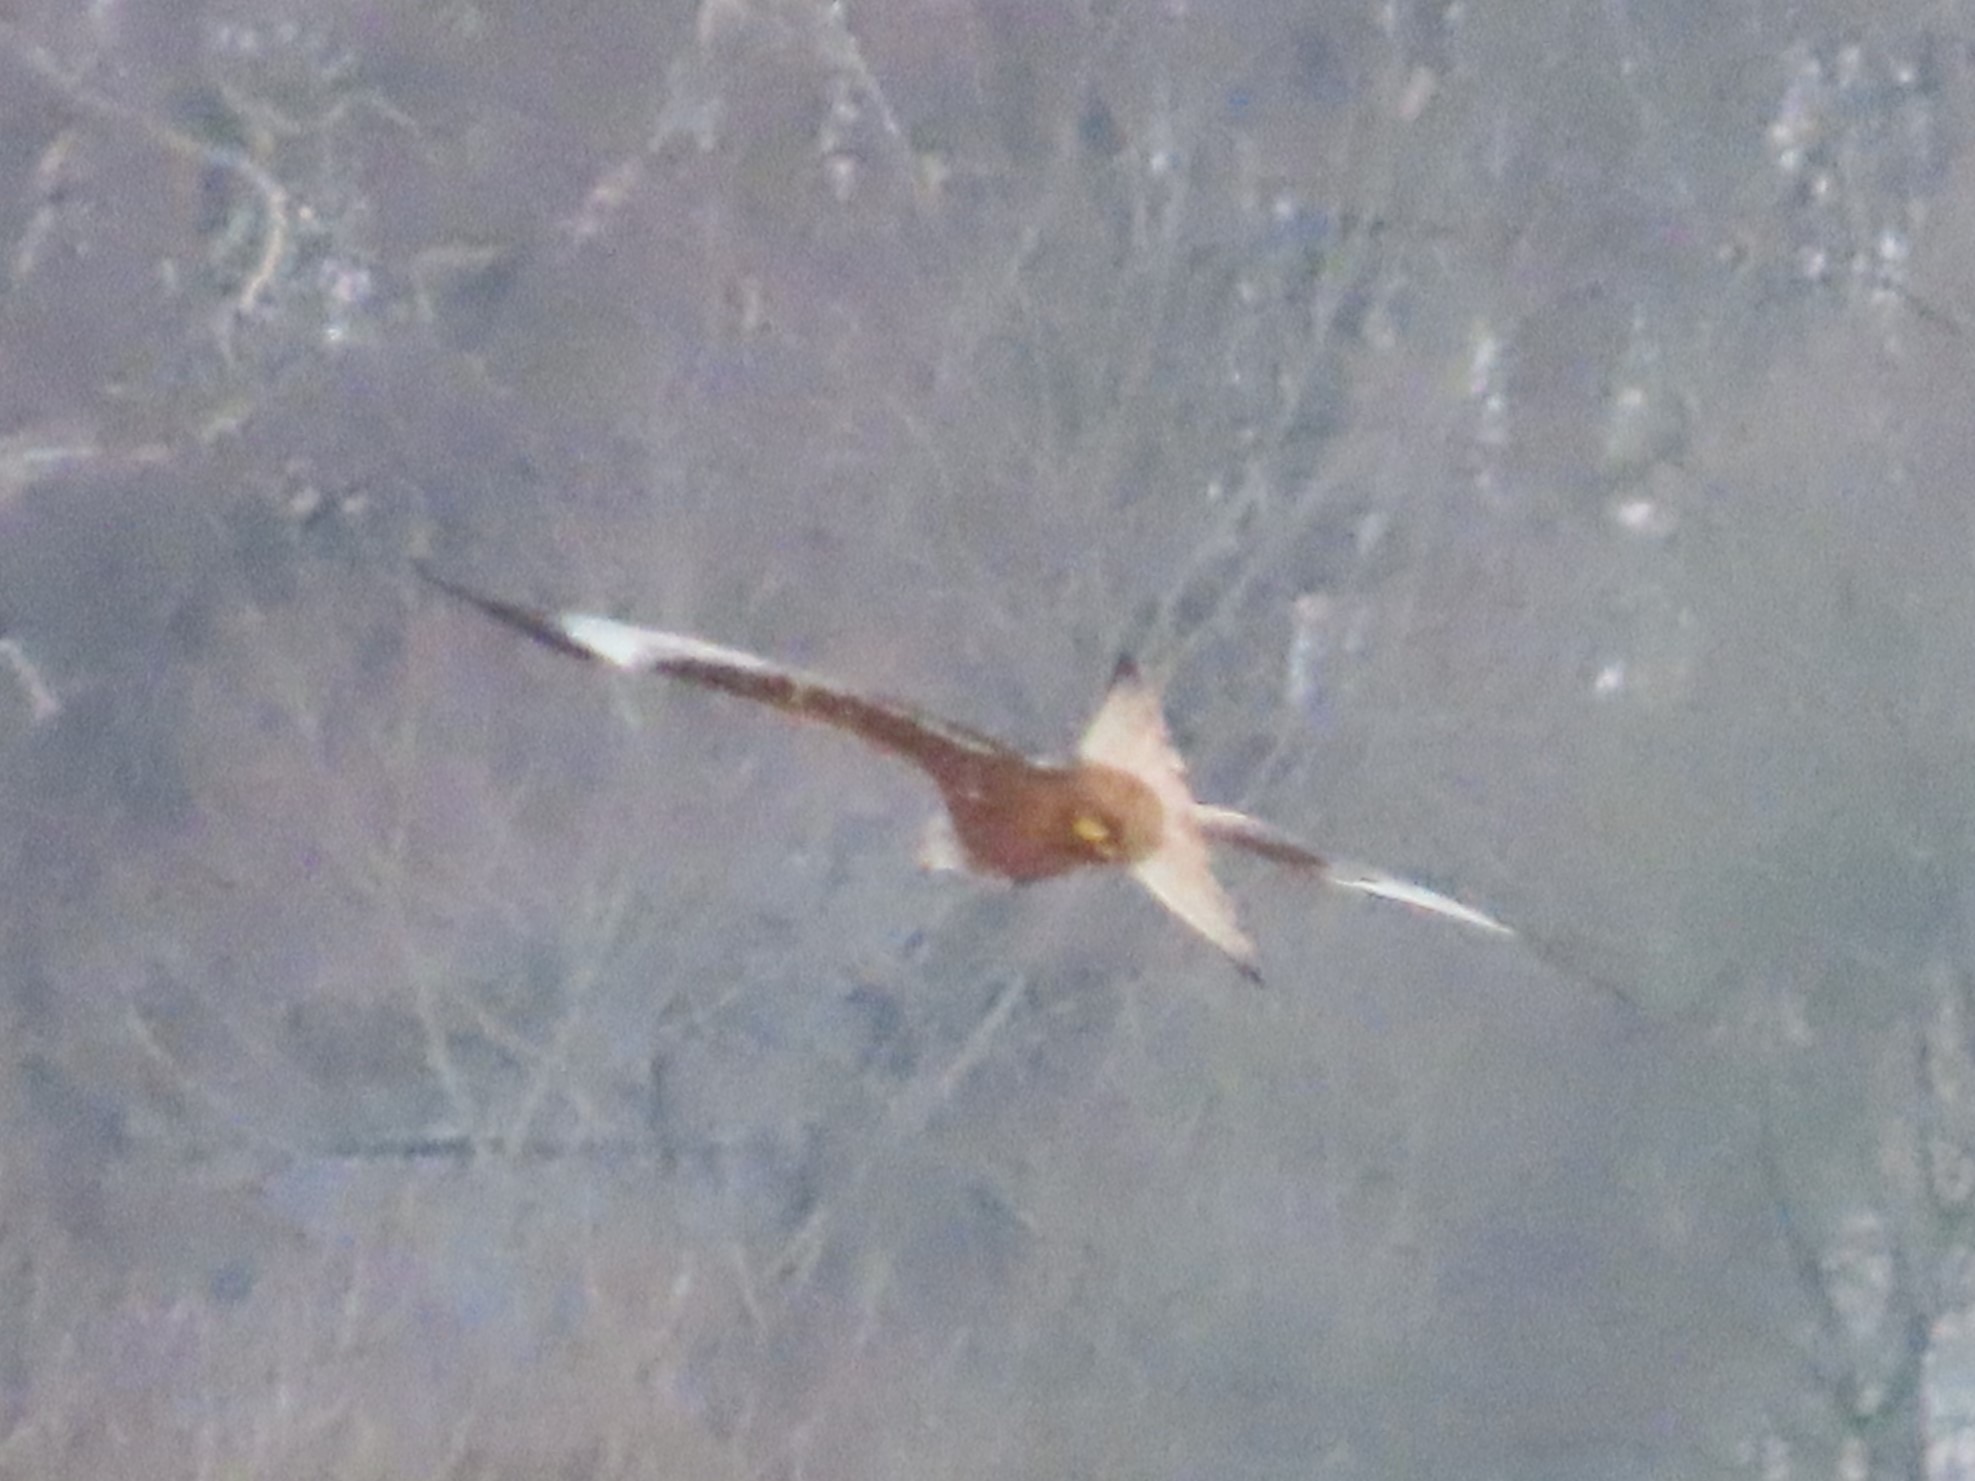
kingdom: Animalia
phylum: Chordata
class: Aves
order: Accipitriformes
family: Accipitridae
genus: Milvus
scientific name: Milvus milvus
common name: Rød glente
